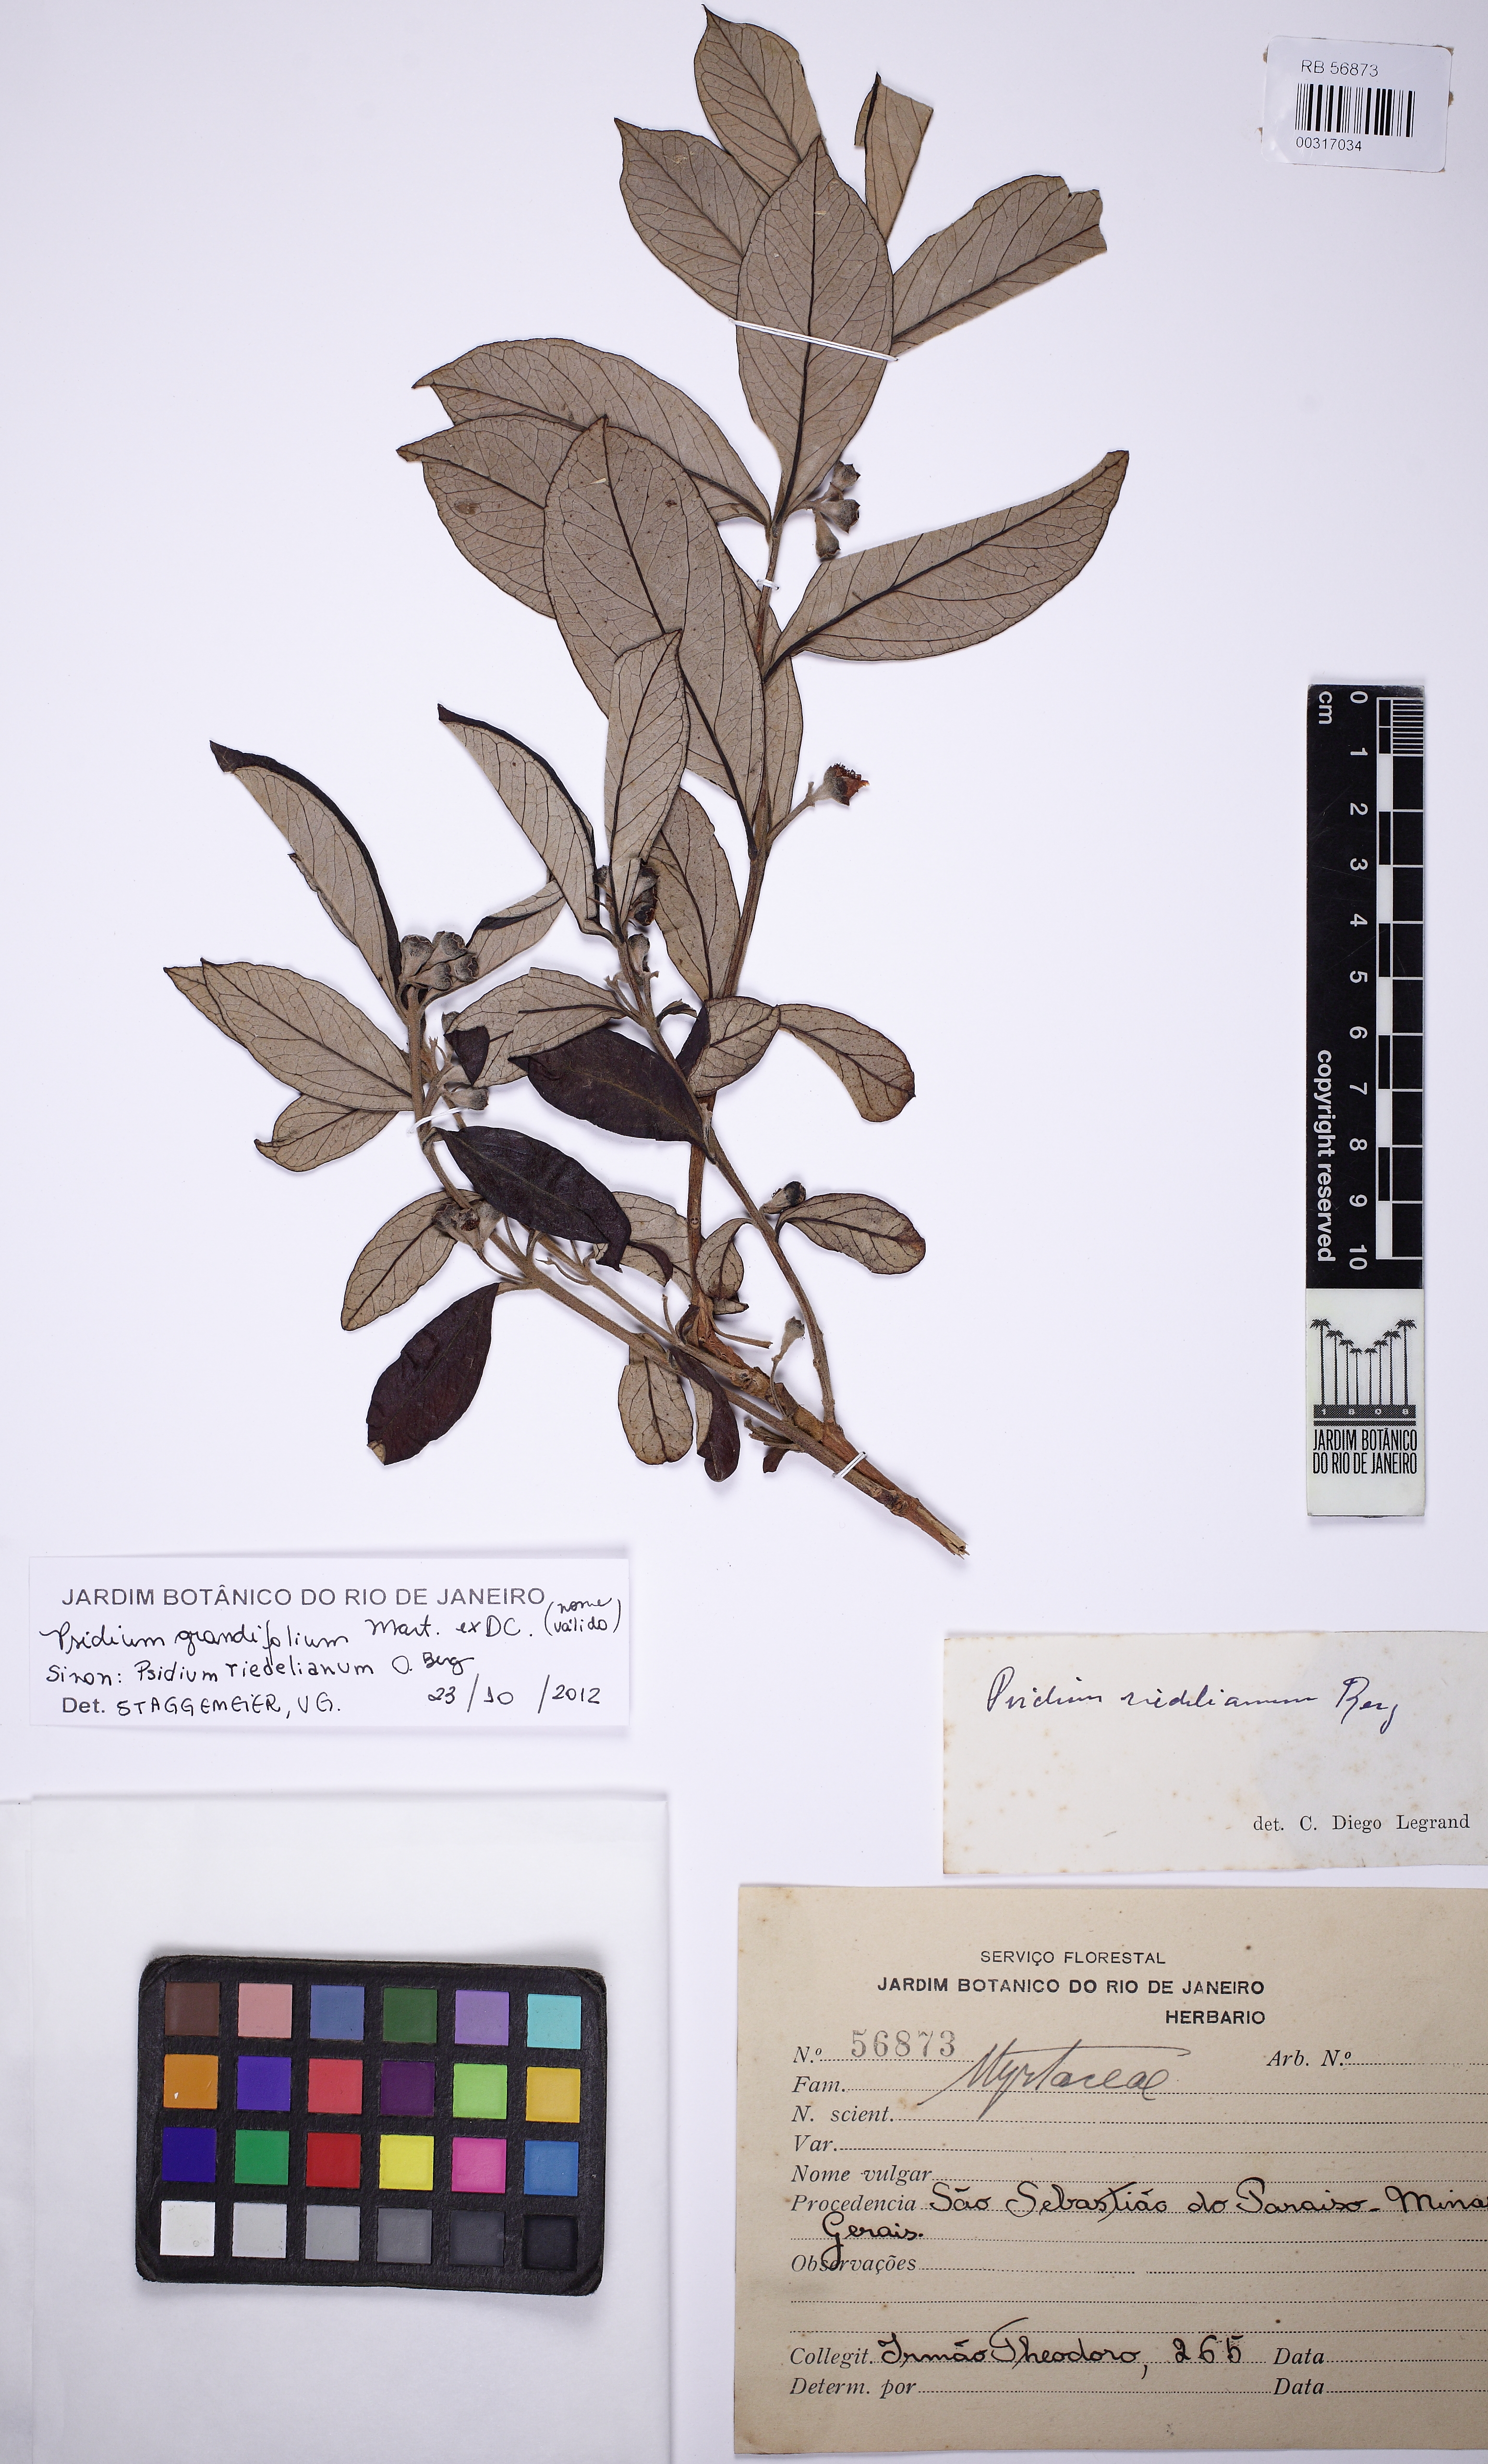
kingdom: Plantae
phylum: Tracheophyta
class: Magnoliopsida
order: Myrtales
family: Myrtaceae
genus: Psidium
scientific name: Psidium grandifolium
